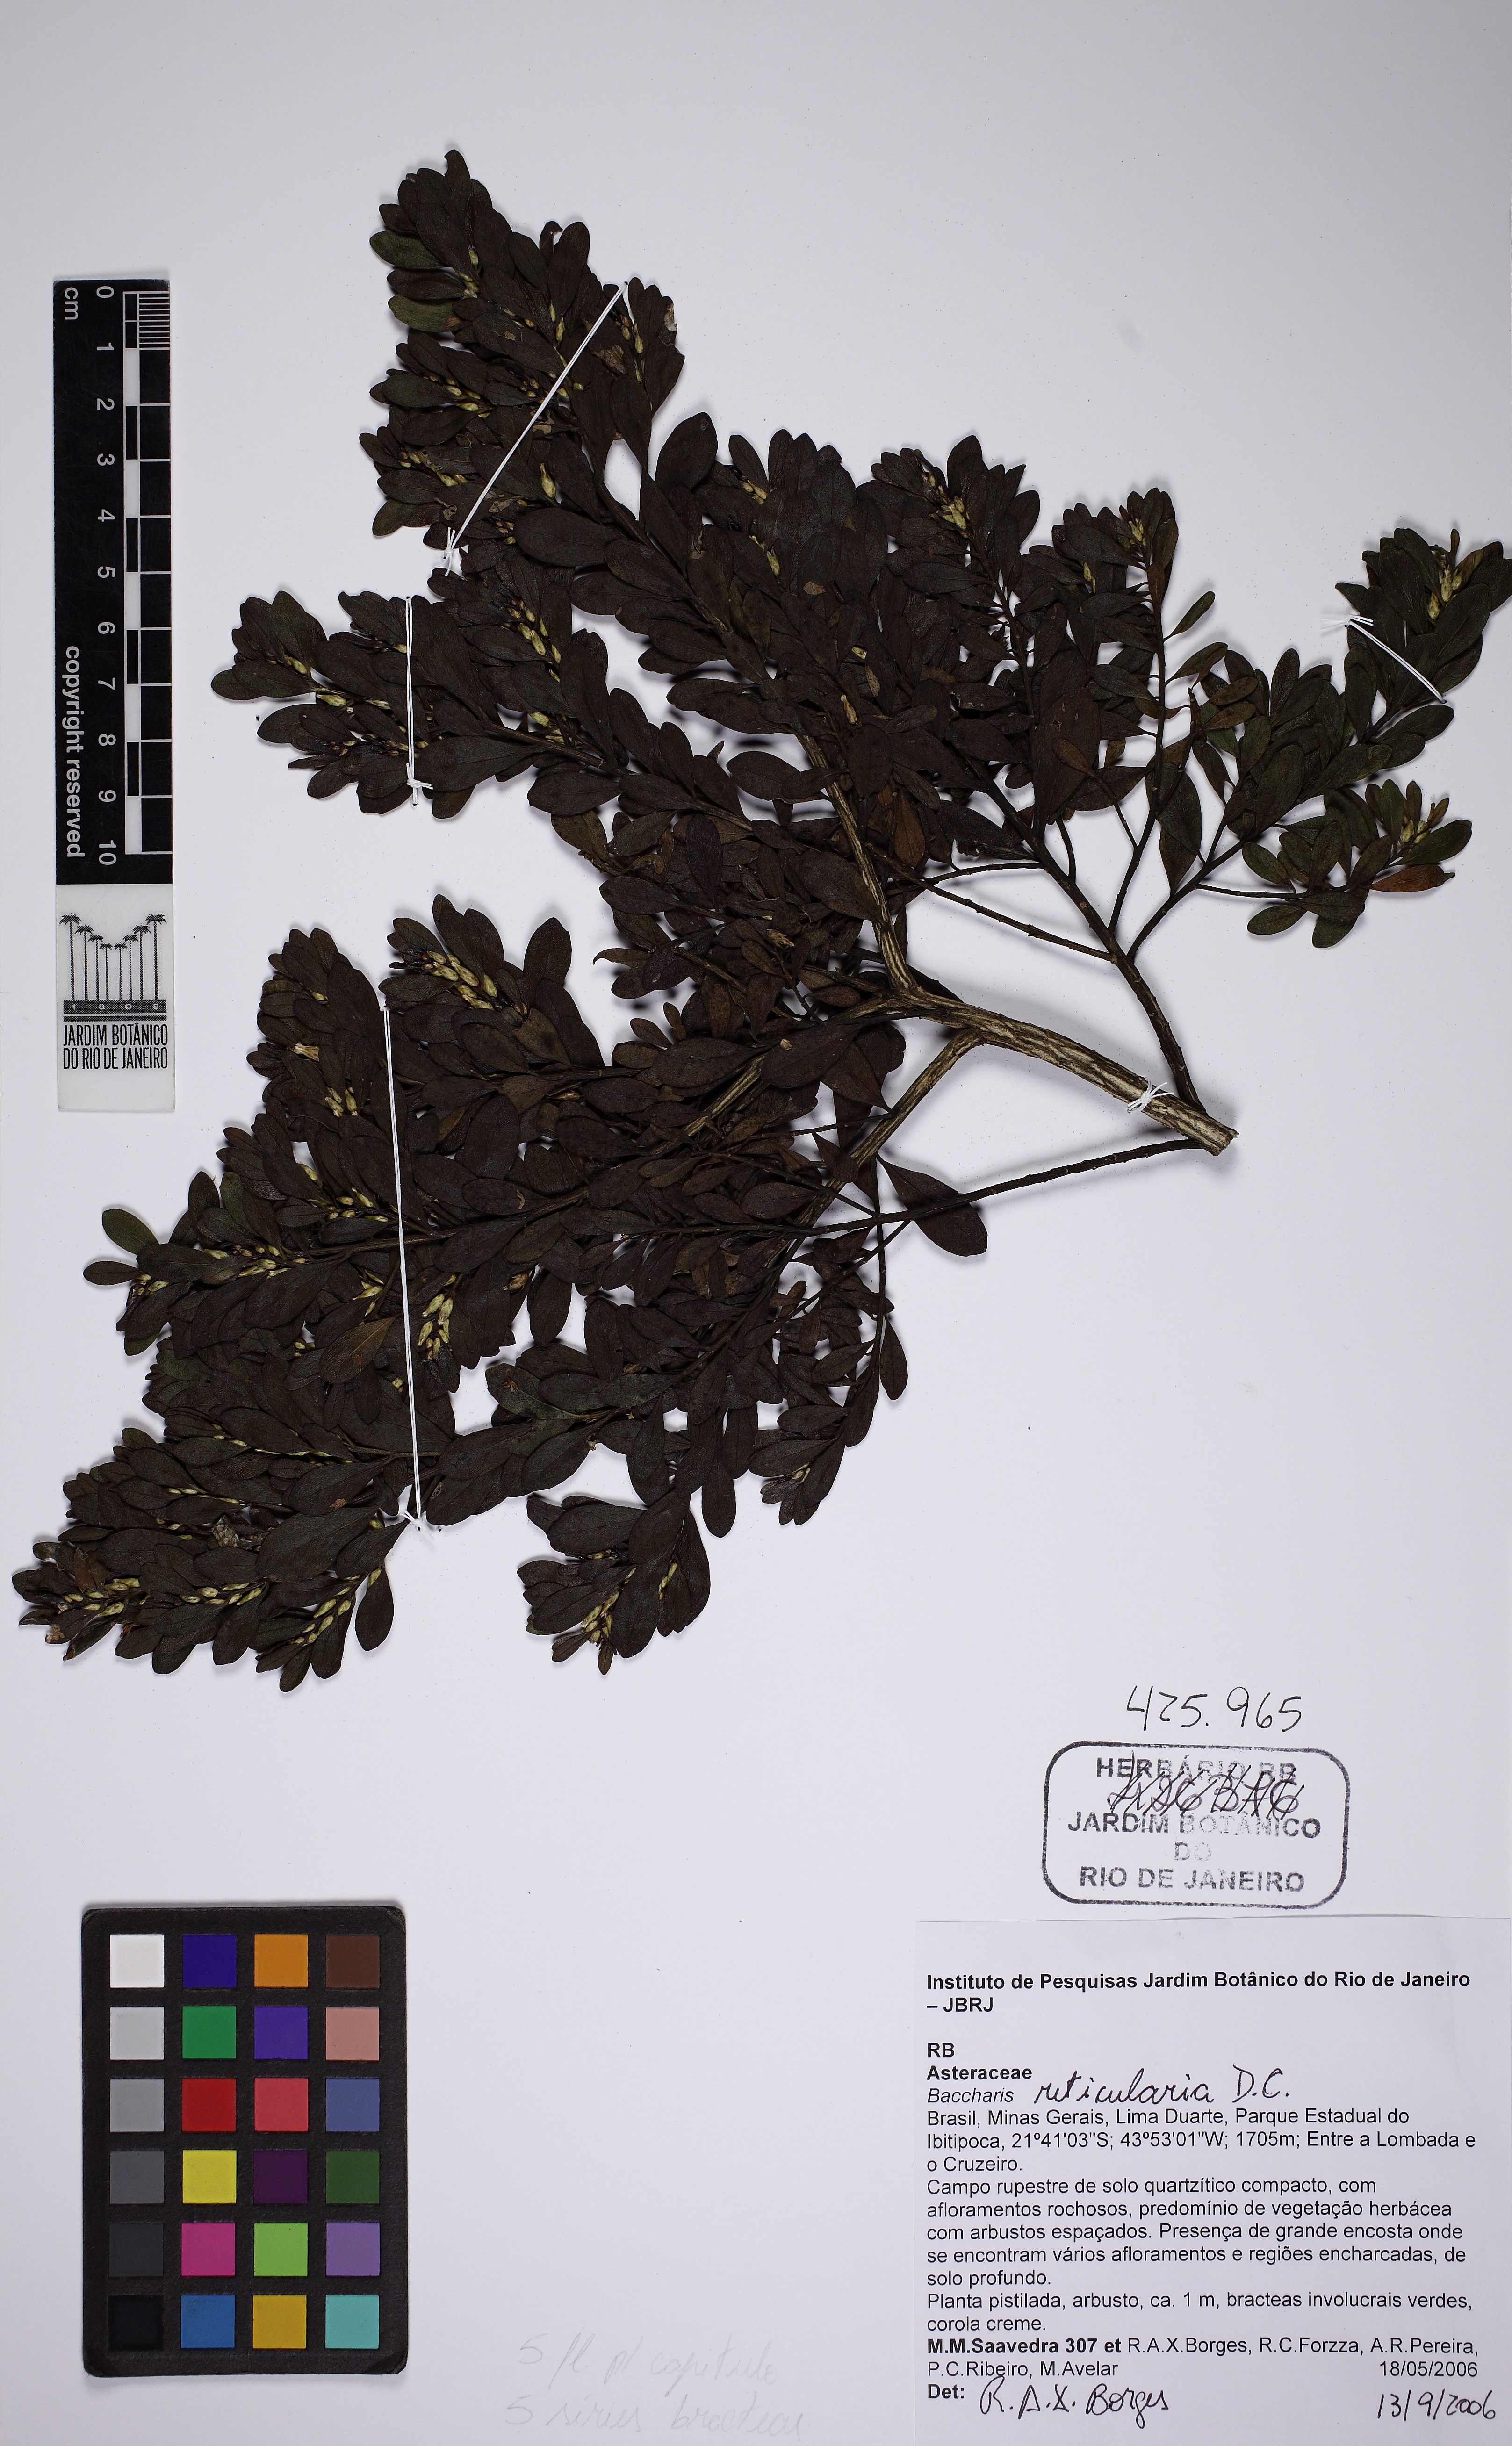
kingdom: Plantae
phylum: Tracheophyta
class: Magnoliopsida
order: Asterales
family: Asteraceae
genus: Baccharis
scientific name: Baccharis reticularia
